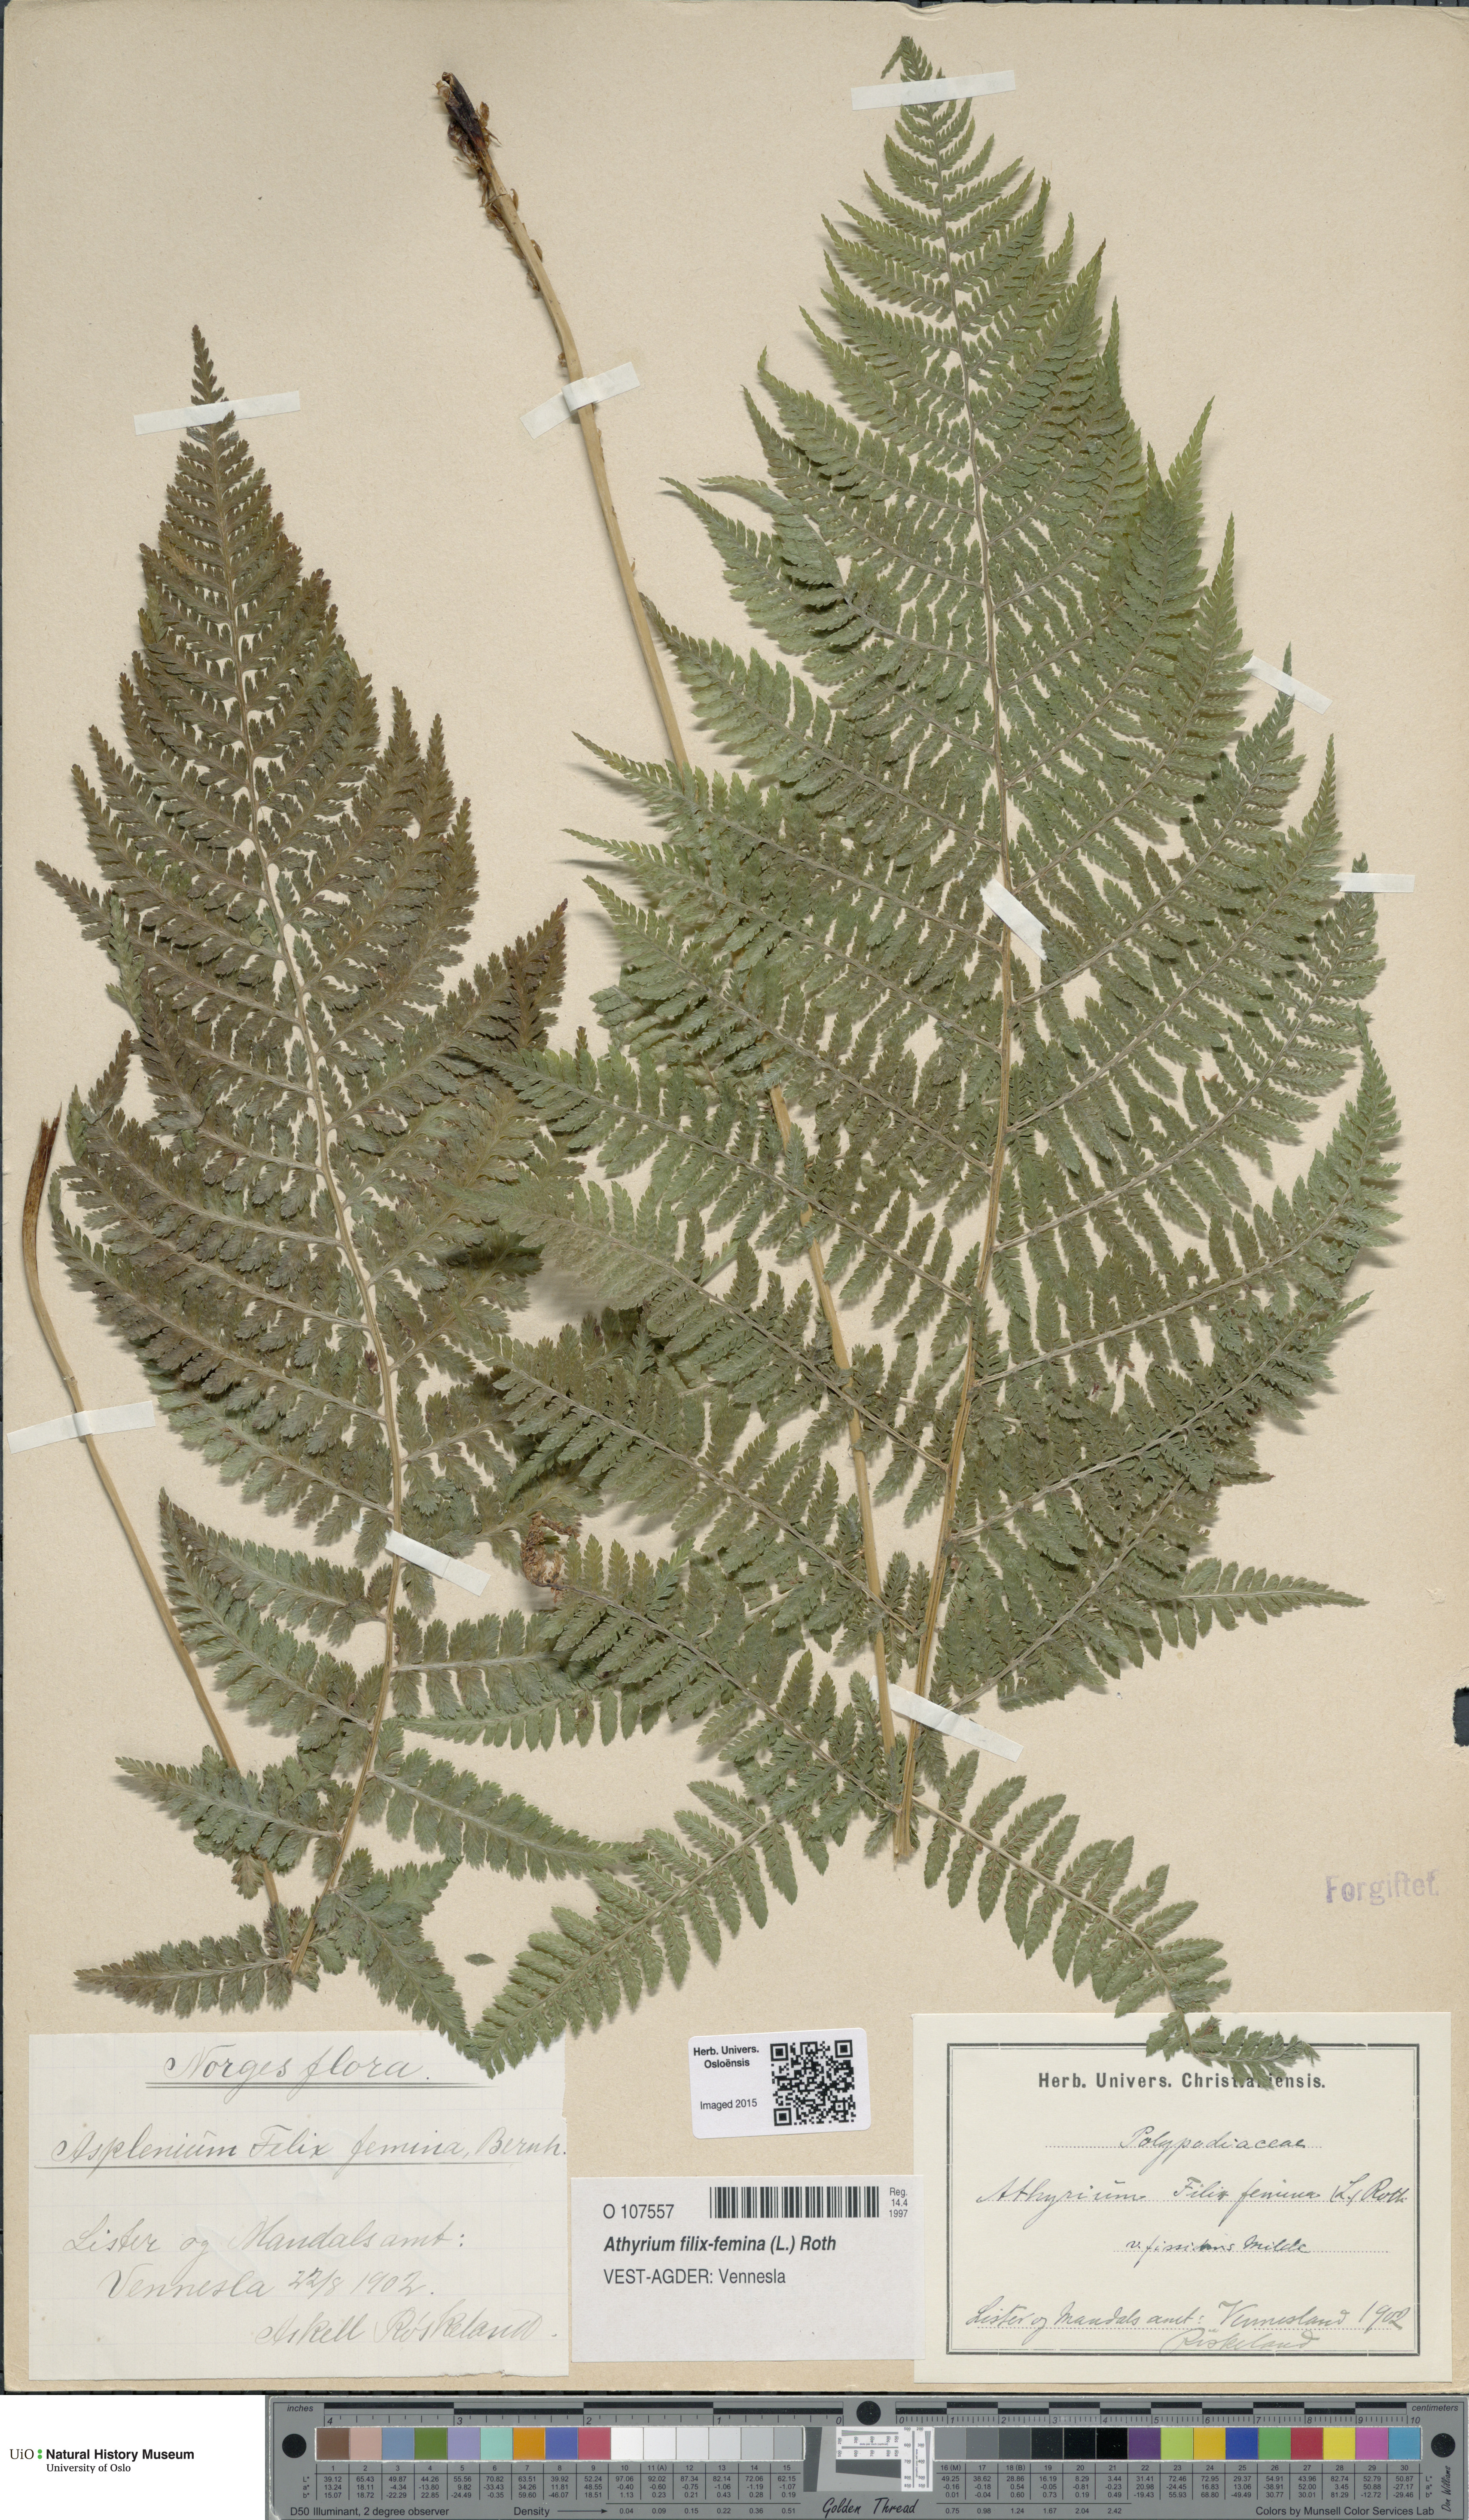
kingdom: Plantae
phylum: Tracheophyta
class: Polypodiopsida
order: Polypodiales
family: Athyriaceae
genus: Athyrium
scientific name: Athyrium filix-femina
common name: Lady fern
